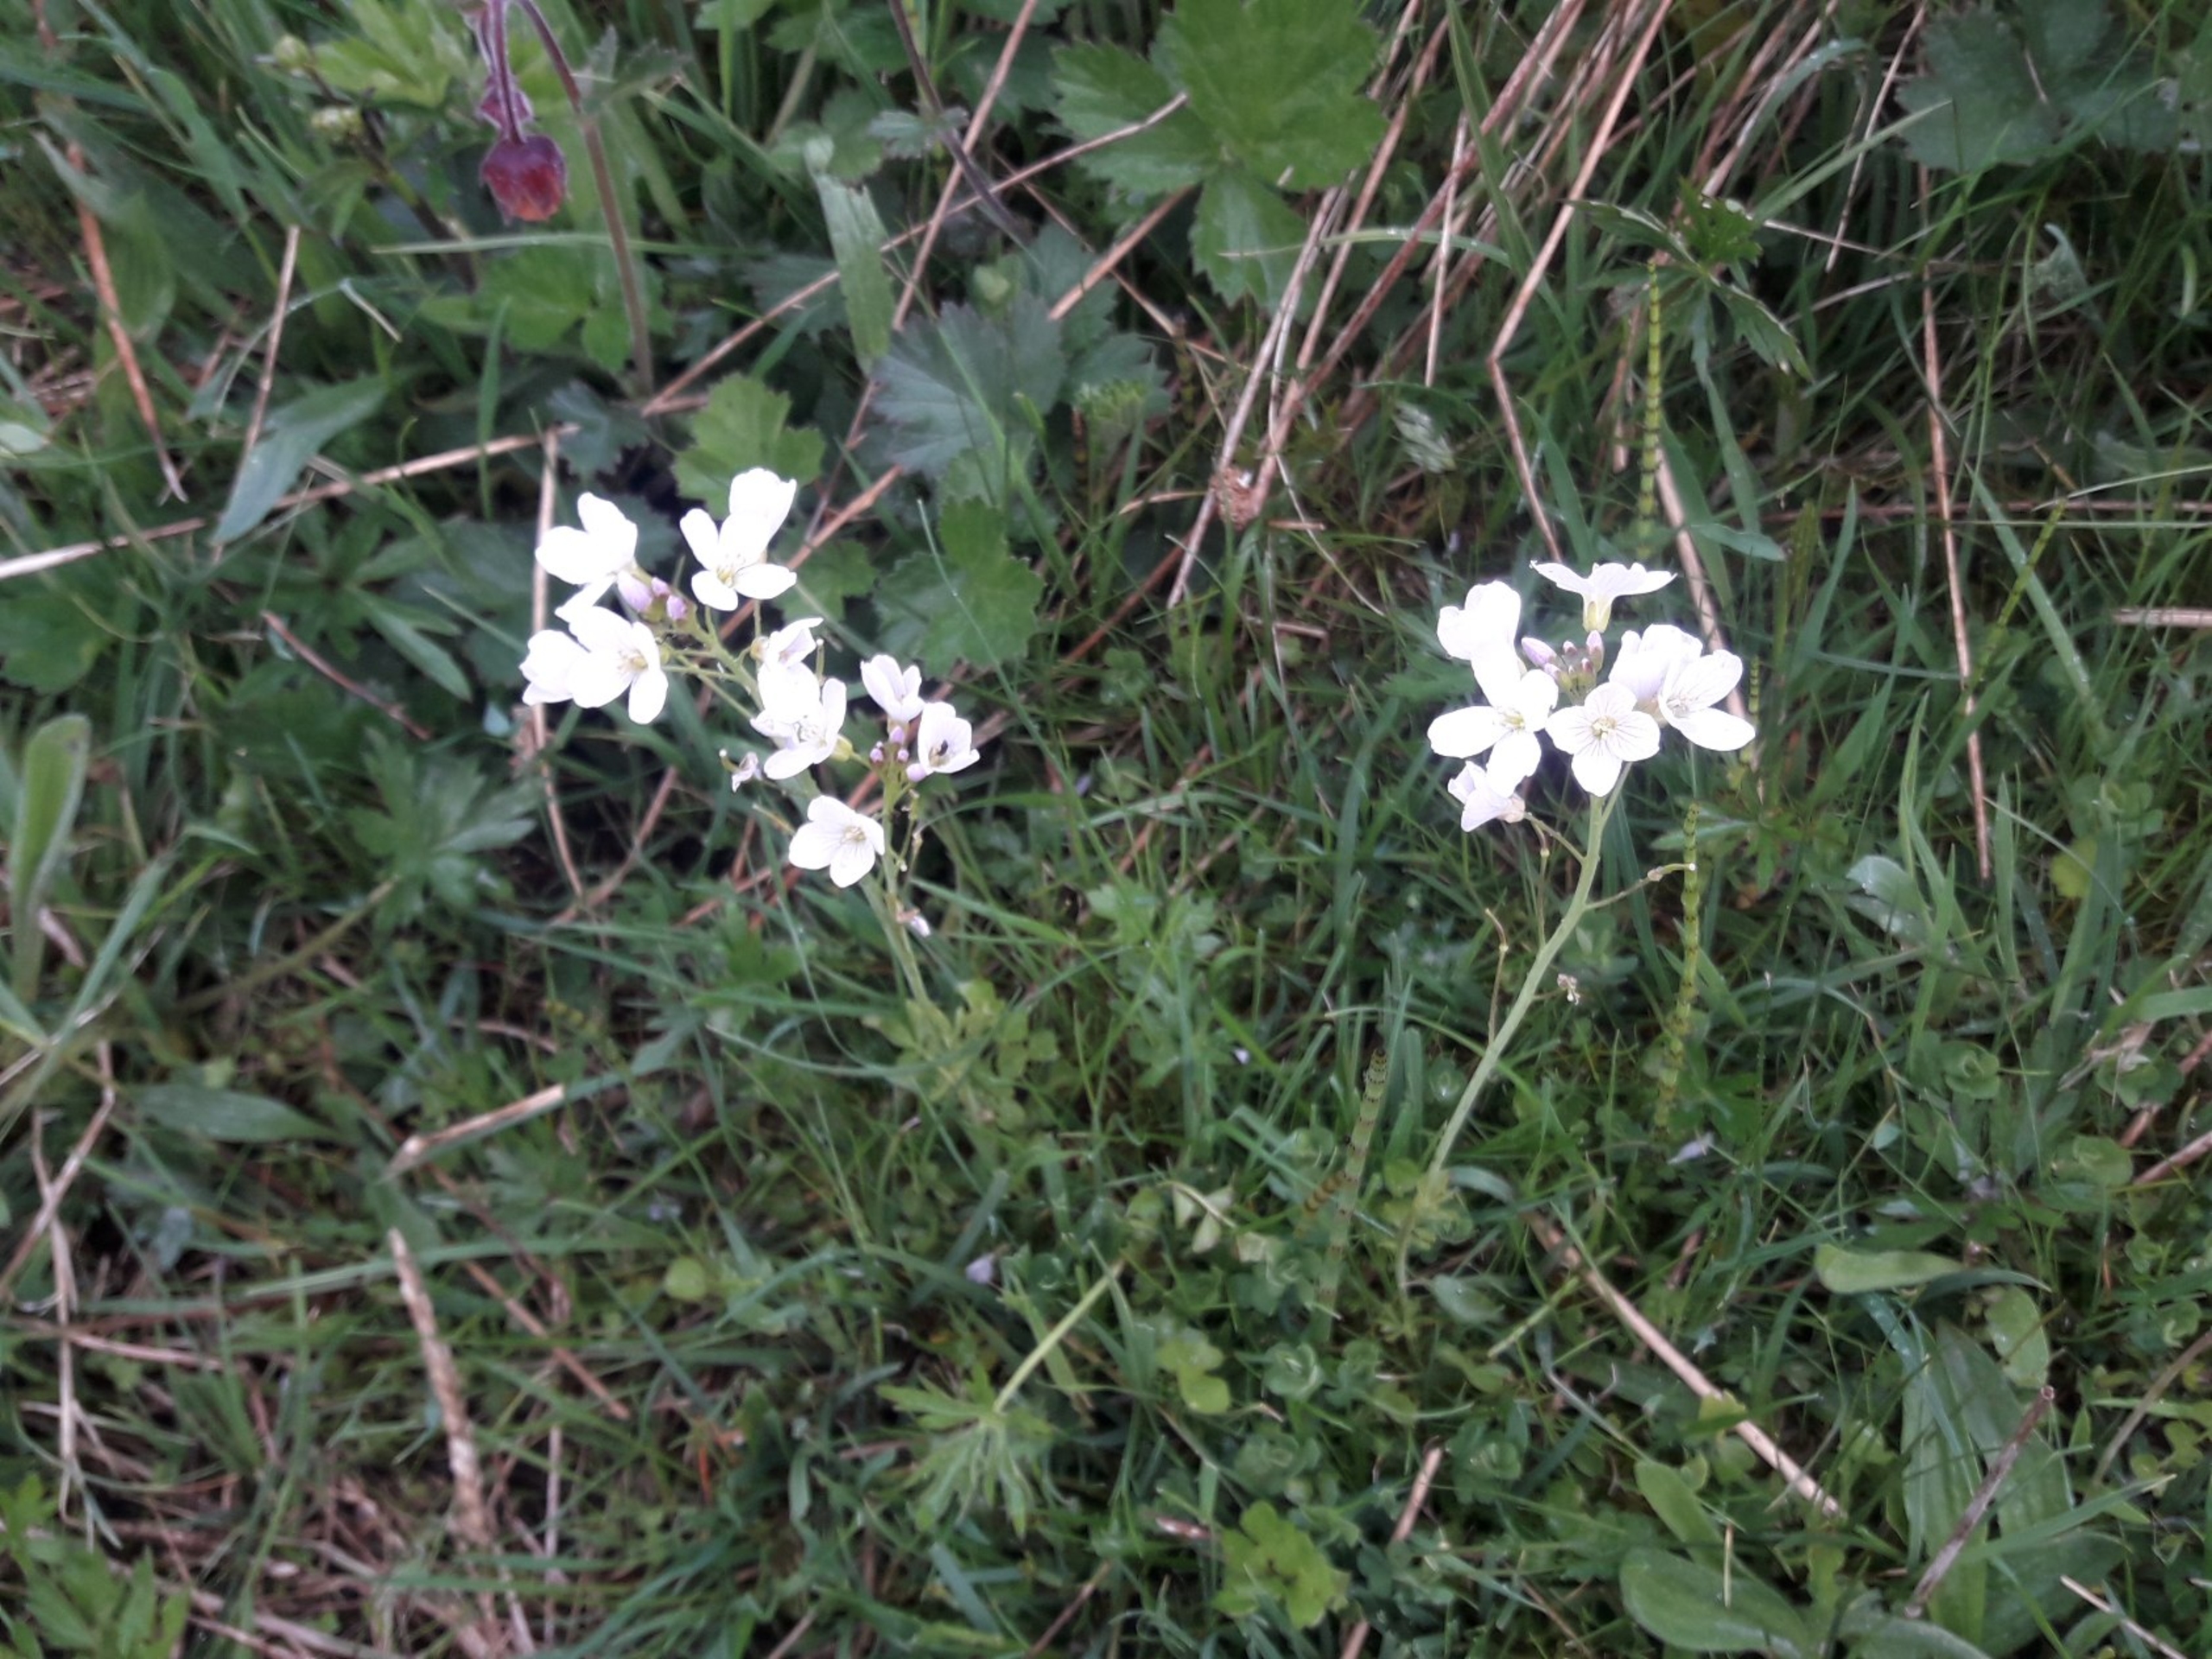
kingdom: Plantae
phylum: Tracheophyta
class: Magnoliopsida
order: Brassicales
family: Brassicaceae
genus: Cardamine
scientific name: Cardamine pratensis
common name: Engkarse
